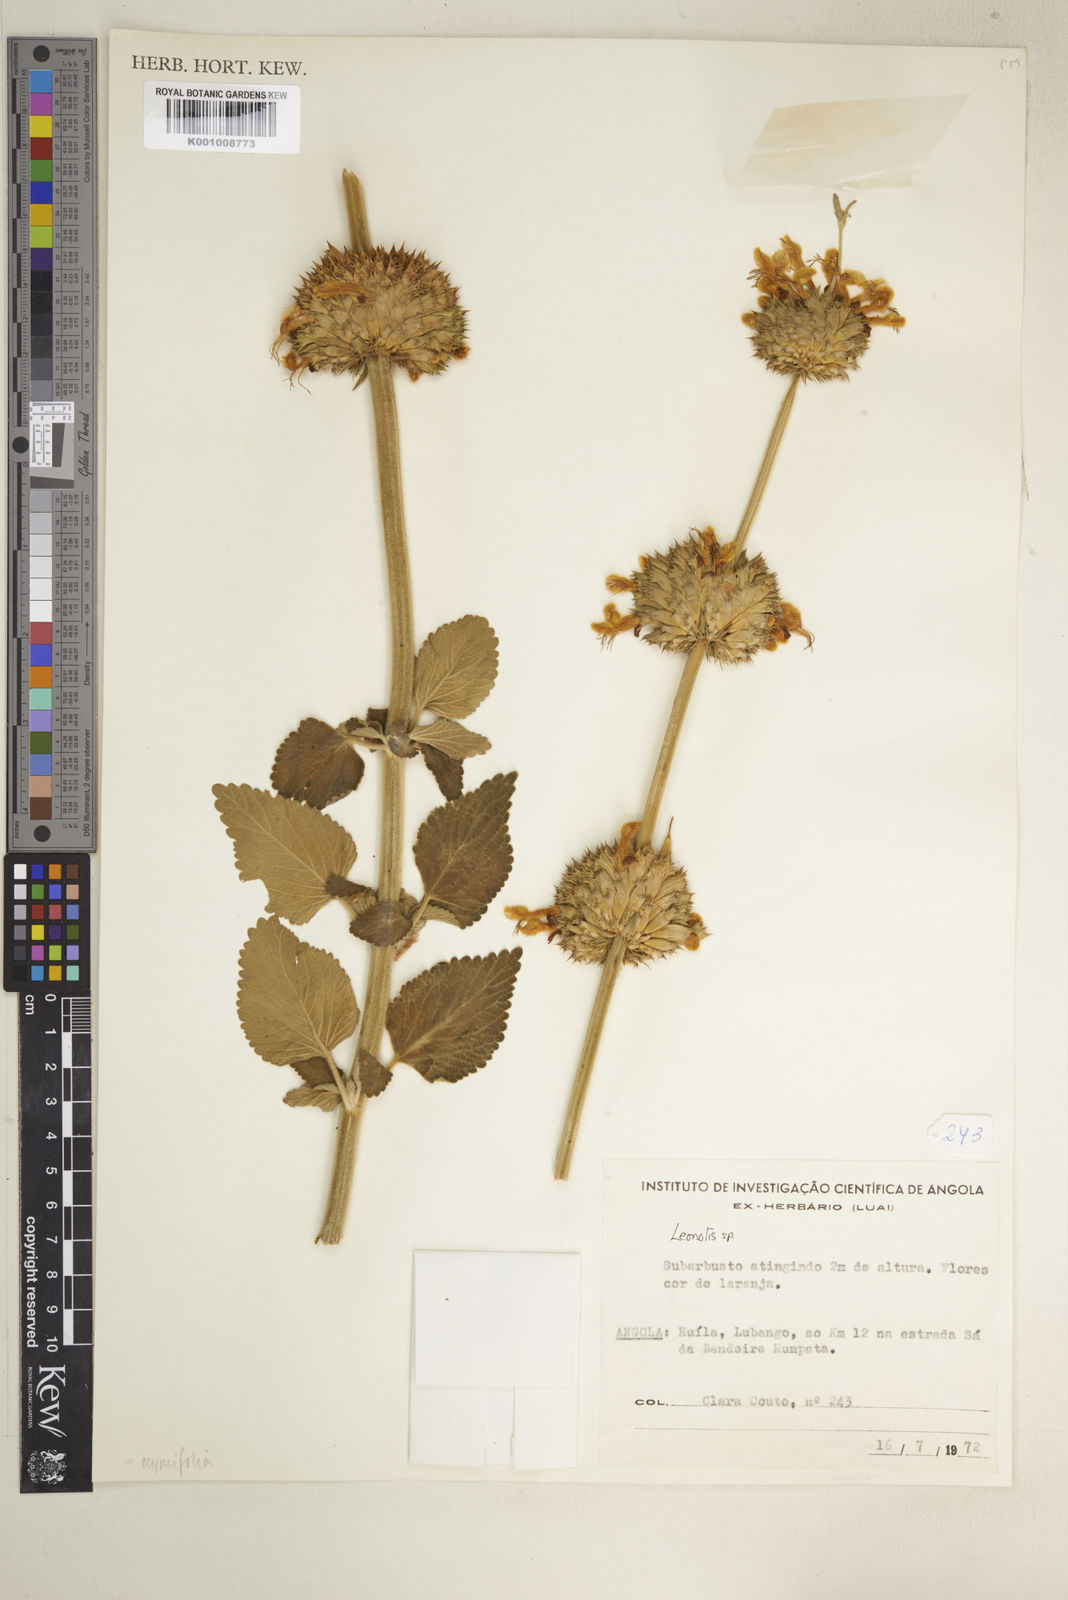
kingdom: Plantae
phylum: Tracheophyta
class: Magnoliopsida
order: Lamiales
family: Lamiaceae
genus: Leonotis
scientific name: Leonotis ocymifolia
